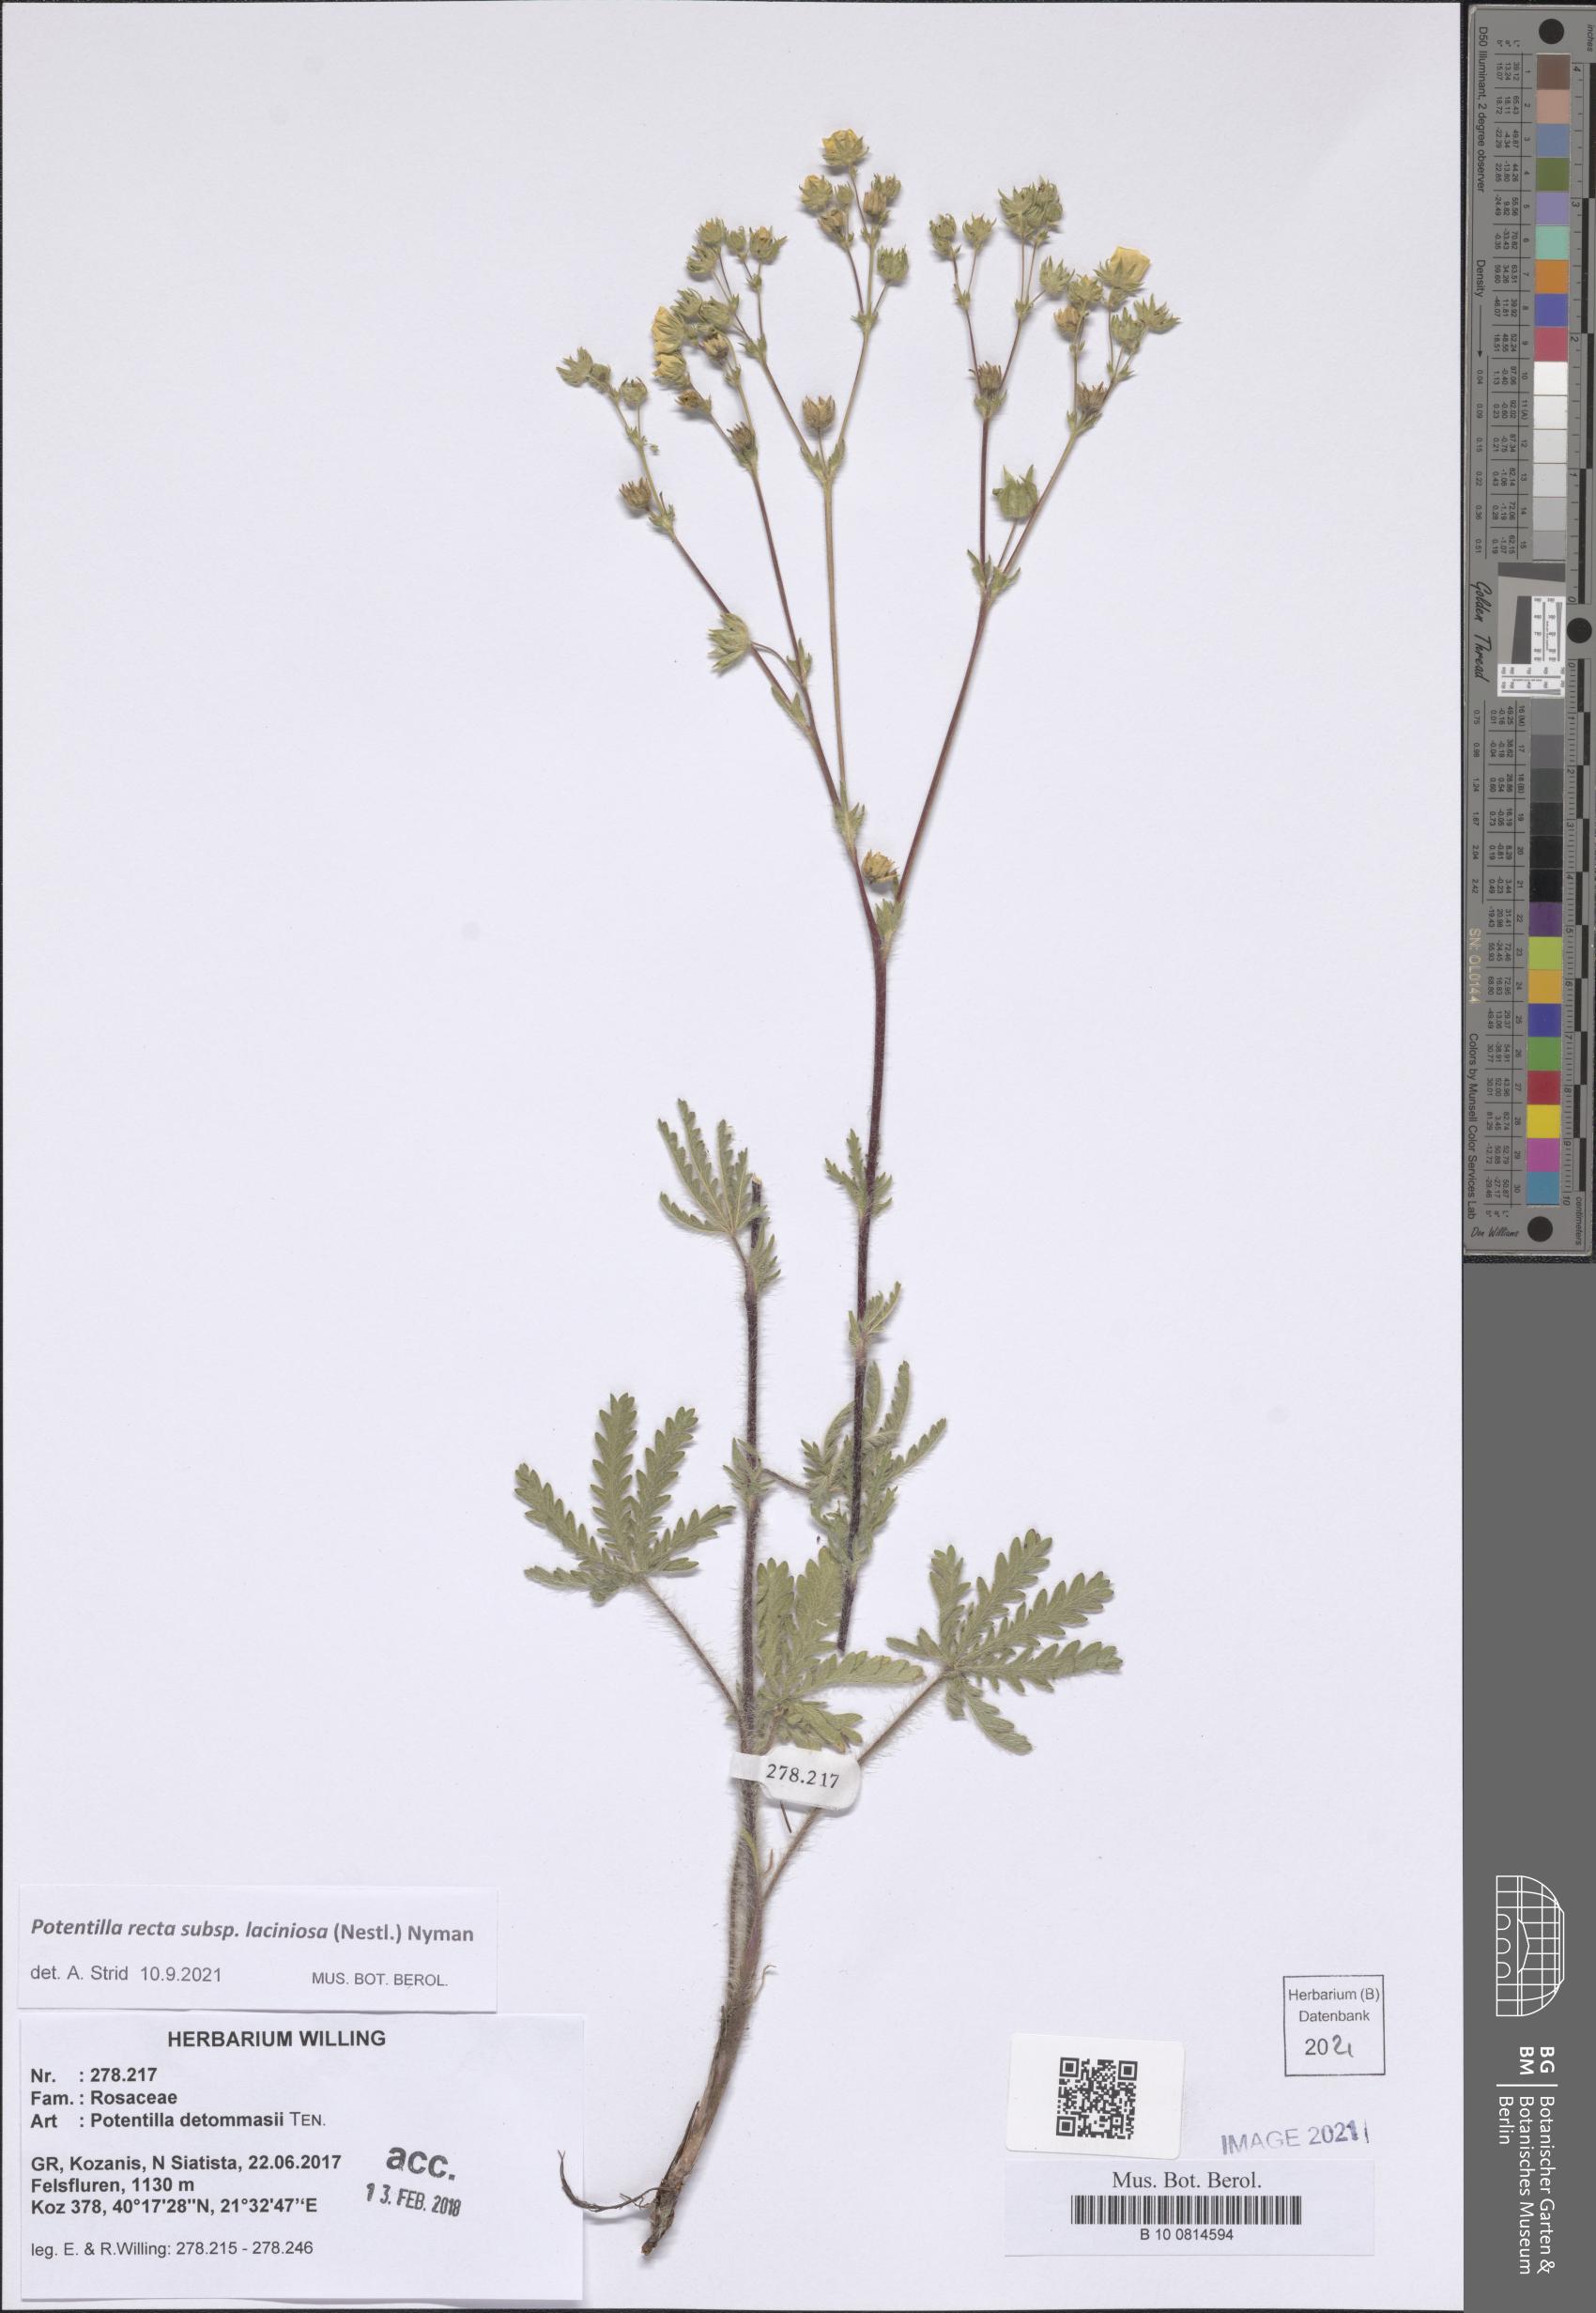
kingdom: Plantae
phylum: Tracheophyta
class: Magnoliopsida
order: Rosales
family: Rosaceae
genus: Potentilla
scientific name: Potentilla recta
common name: Sulphur cinquefoil
